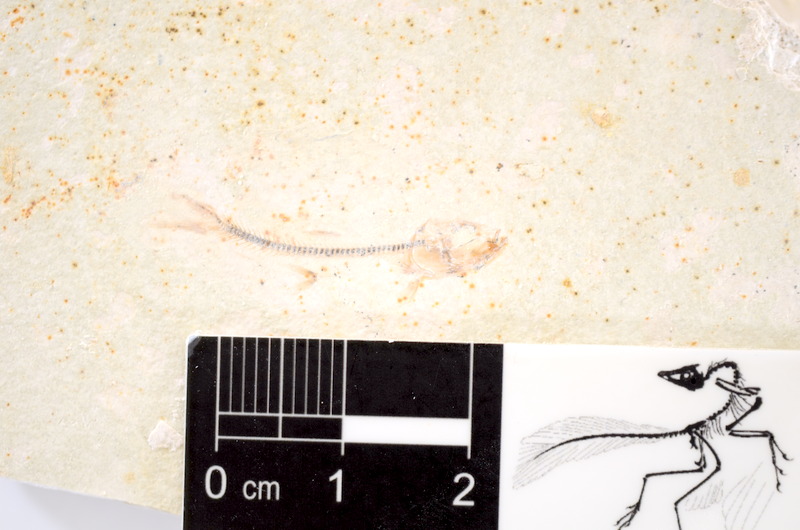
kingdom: Animalia
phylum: Chordata
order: Salmoniformes
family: Orthogonikleithridae
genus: Orthogonikleithrus
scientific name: Orthogonikleithrus hoelli
